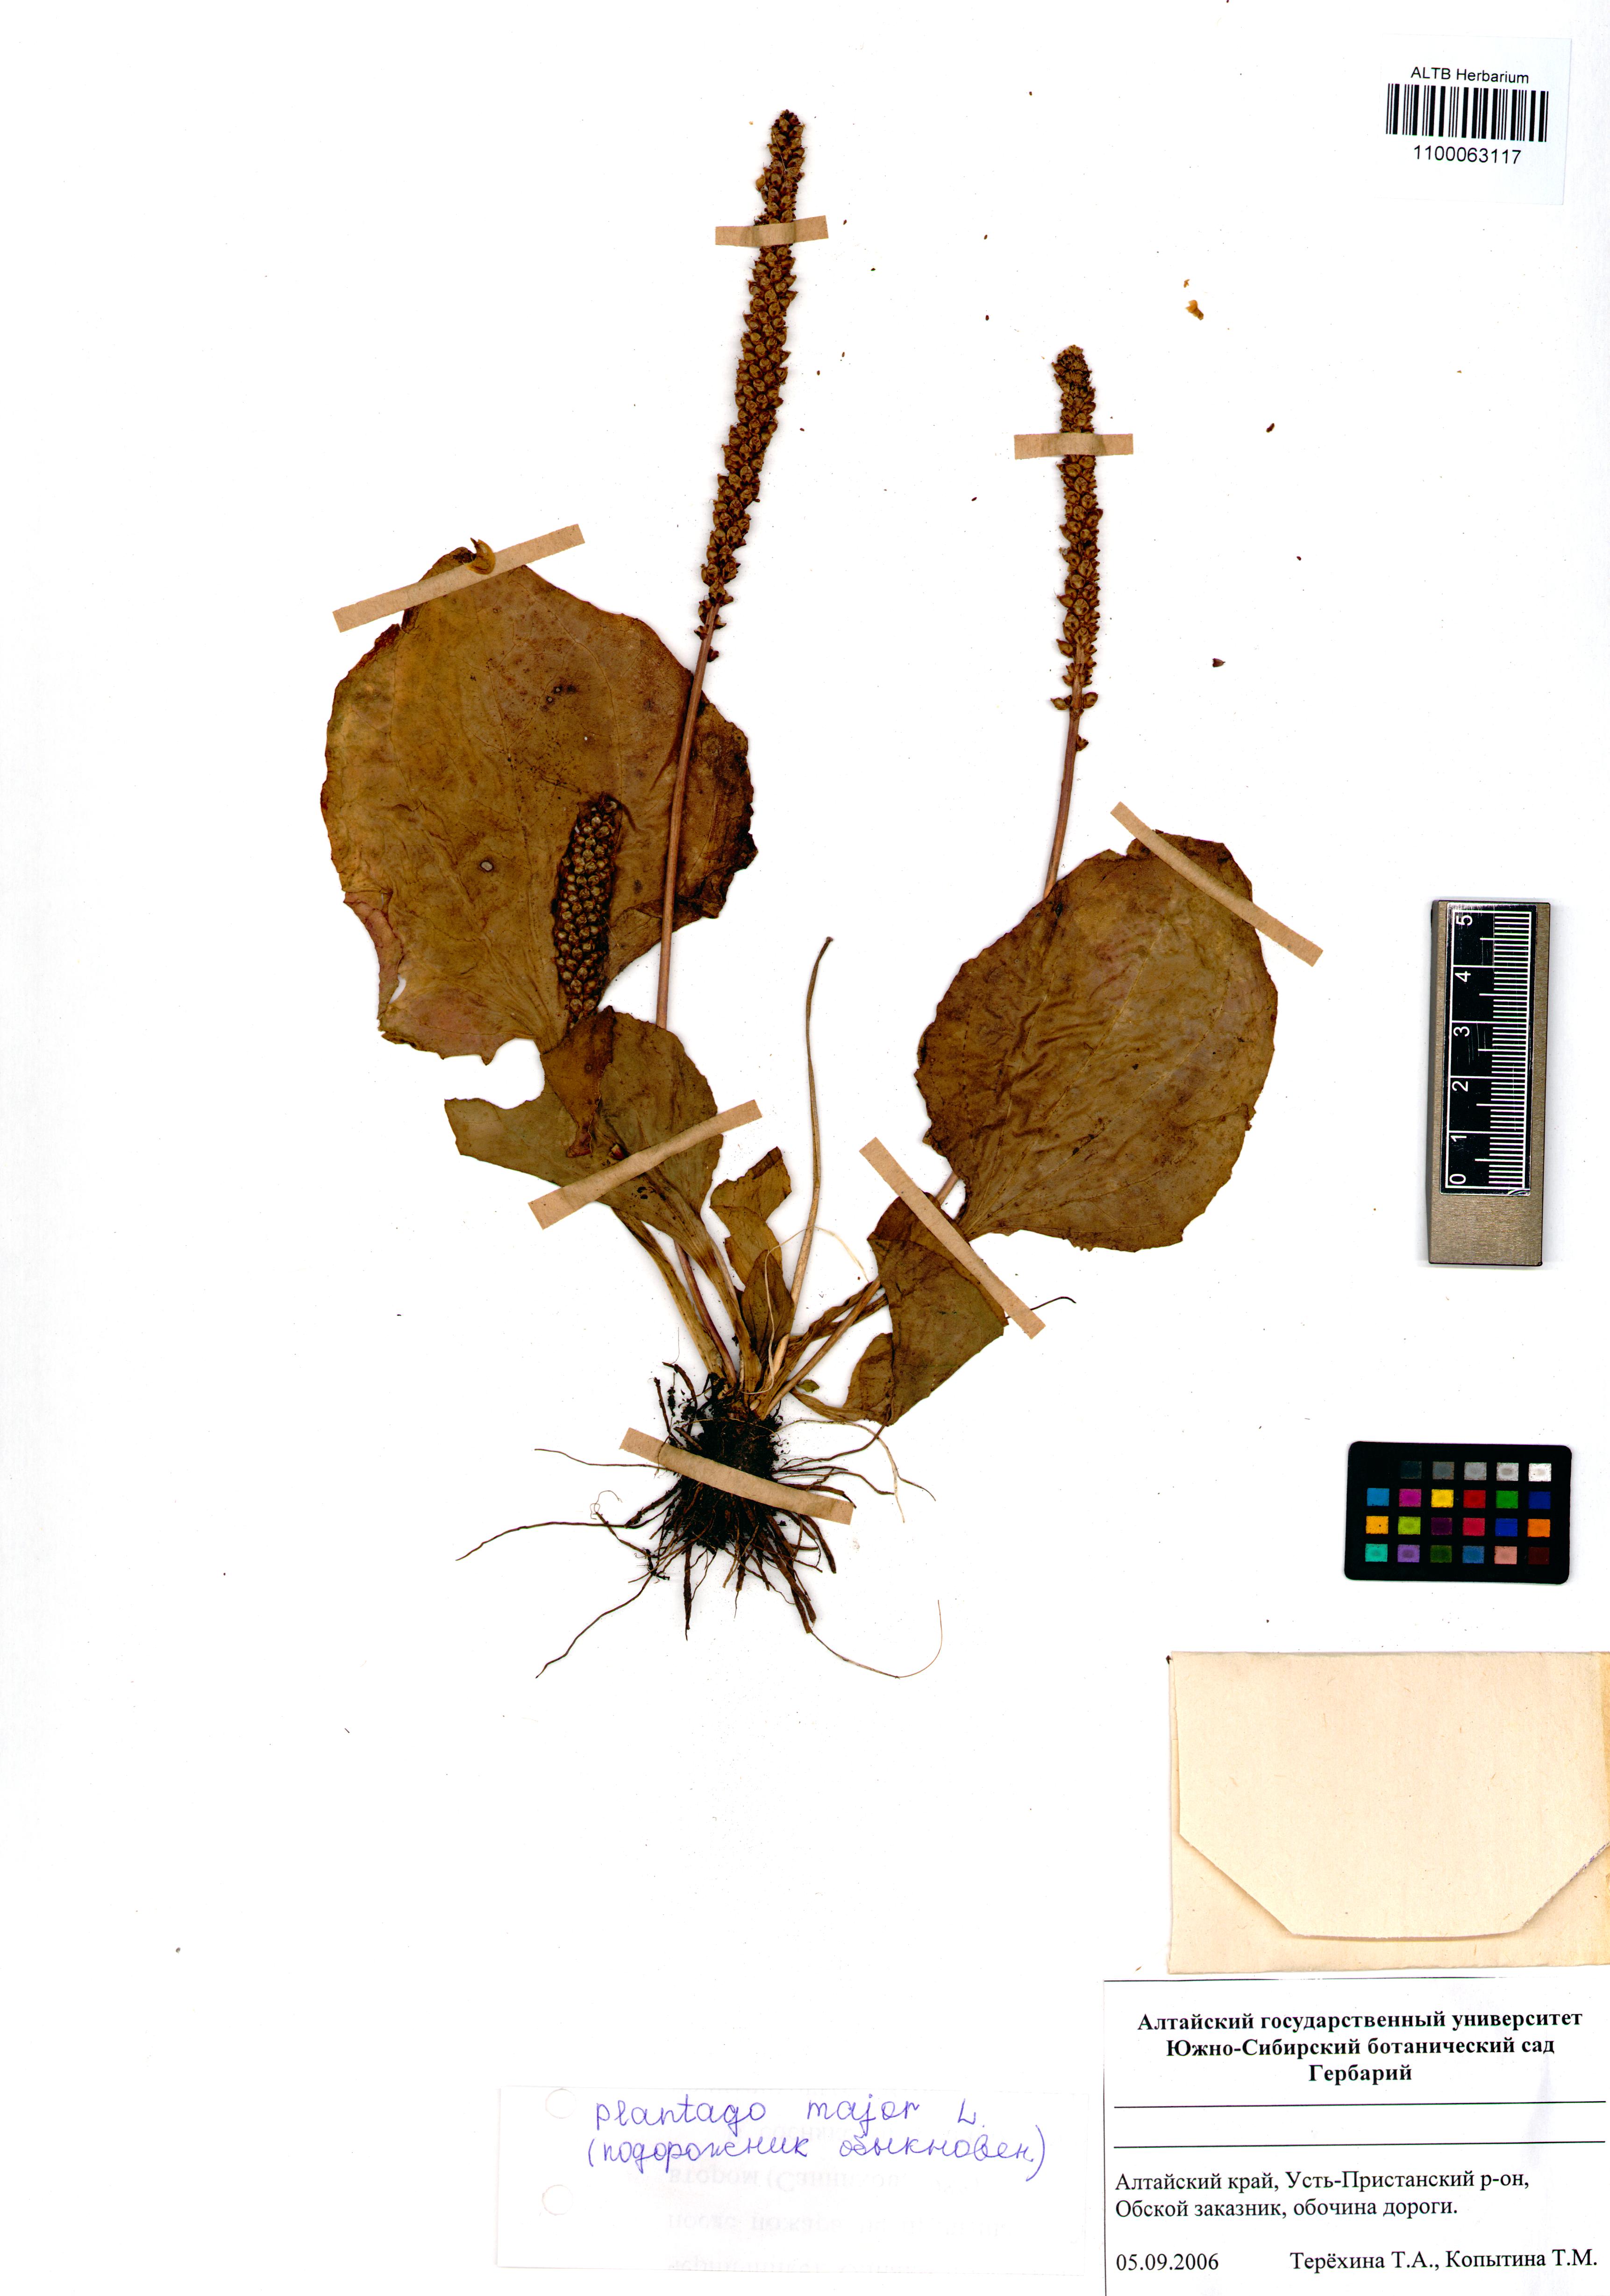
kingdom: Plantae
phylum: Tracheophyta
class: Magnoliopsida
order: Lamiales
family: Plantaginaceae
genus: Plantago
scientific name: Plantago major
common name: Common plantain
